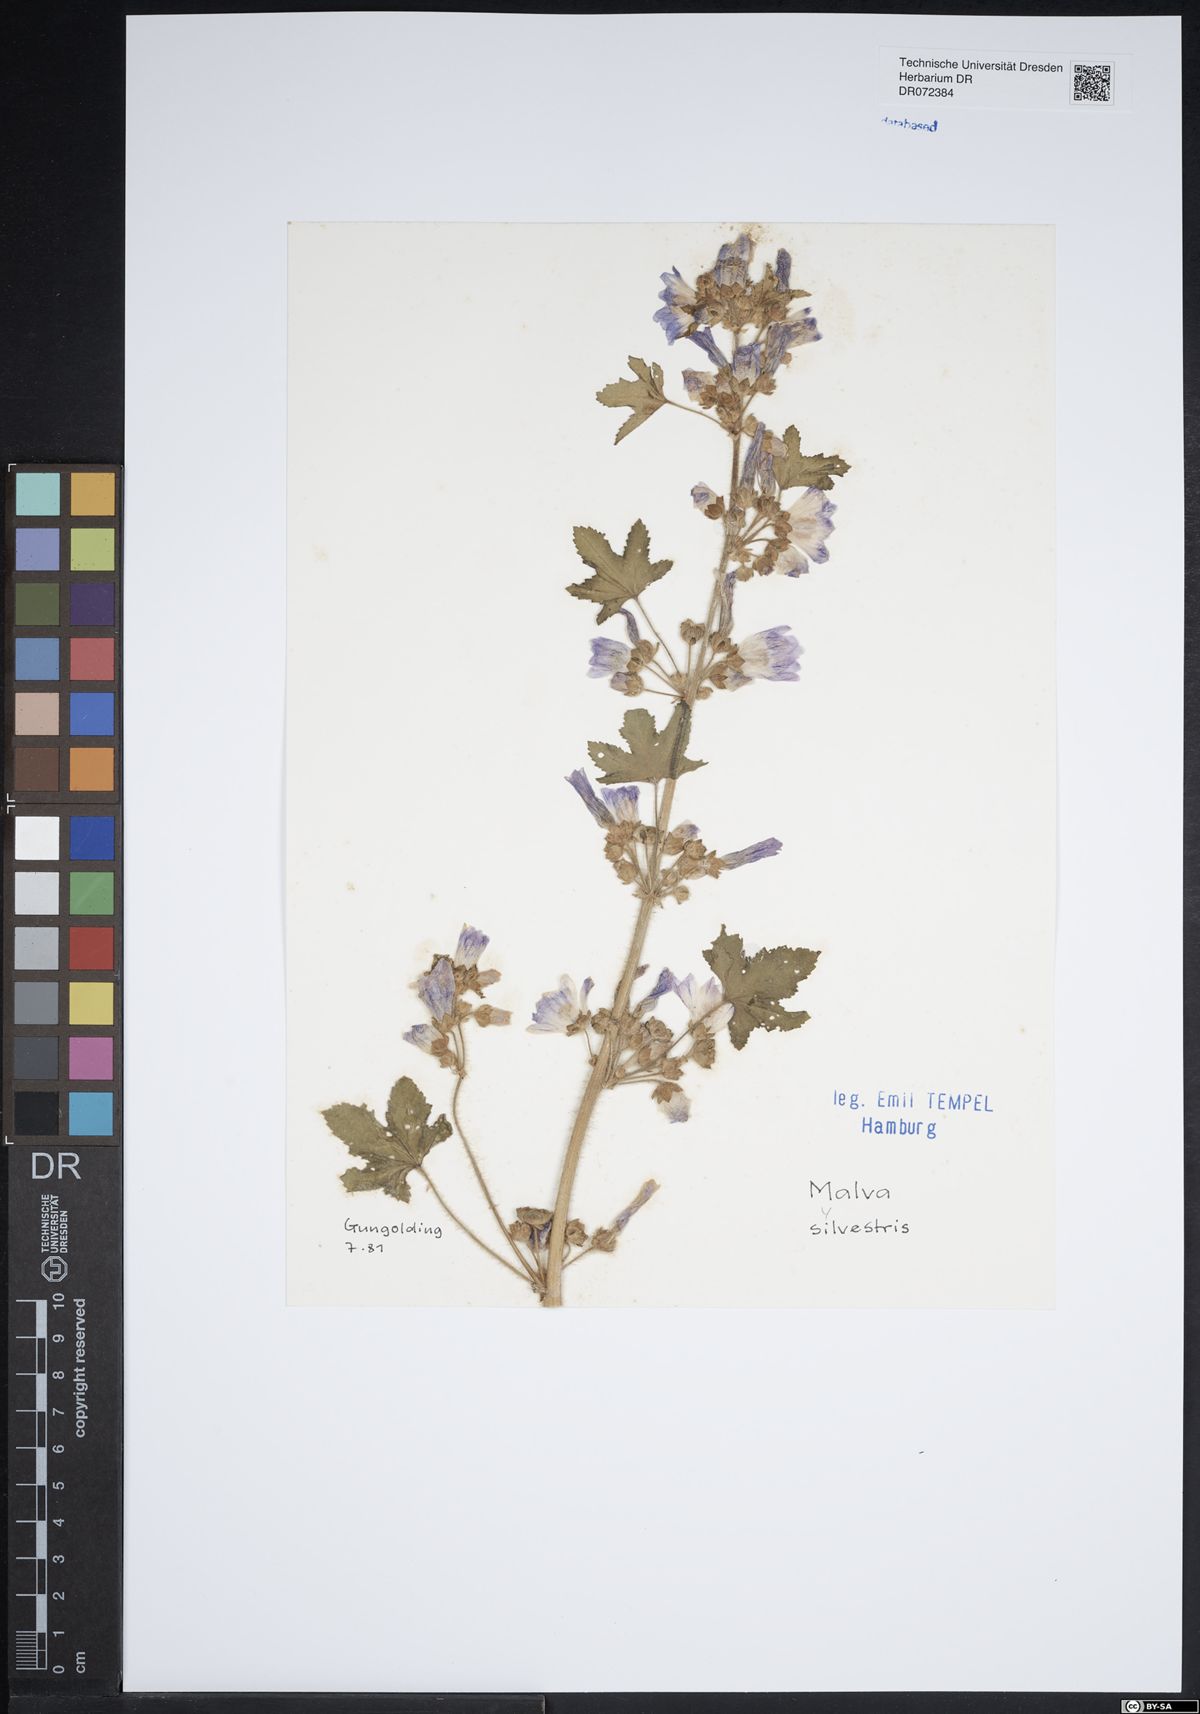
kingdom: Plantae
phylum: Tracheophyta
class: Magnoliopsida
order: Malvales
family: Malvaceae
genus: Malva
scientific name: Malva sylvestris
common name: Common mallow
